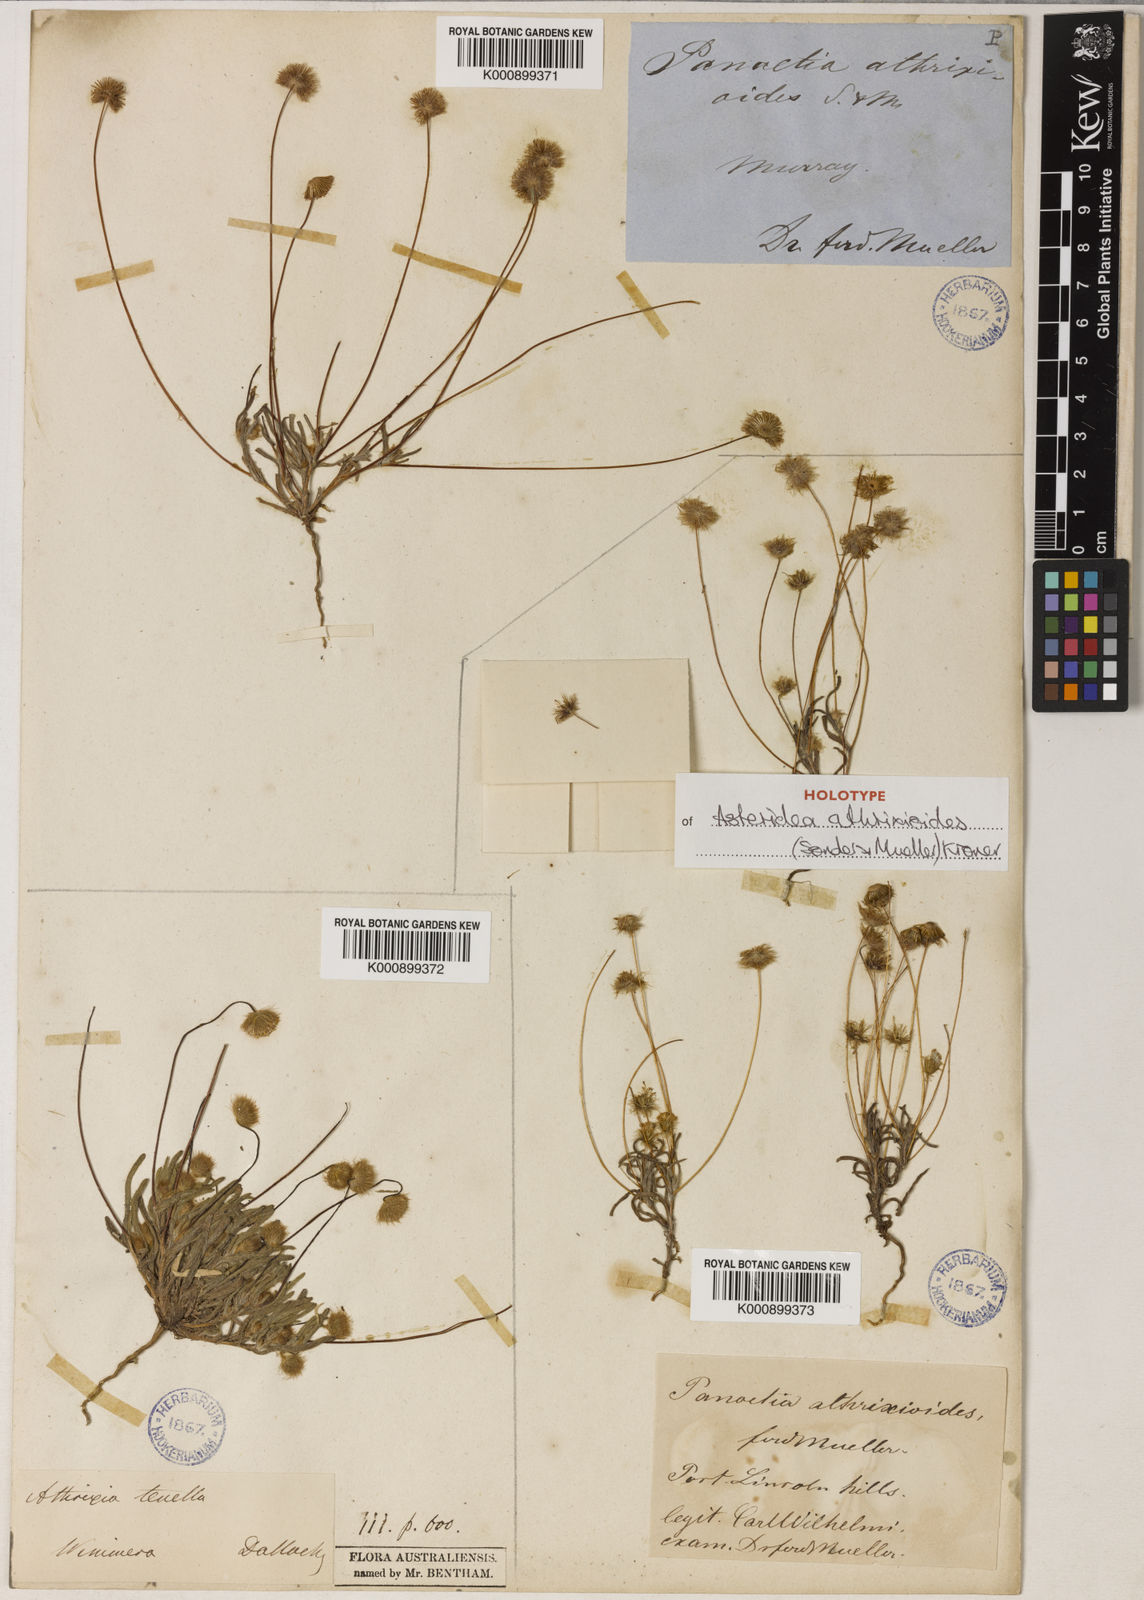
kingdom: Plantae
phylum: Tracheophyta
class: Magnoliopsida
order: Asterales
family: Asteraceae
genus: Asteridea
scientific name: Asteridea athrixioides
